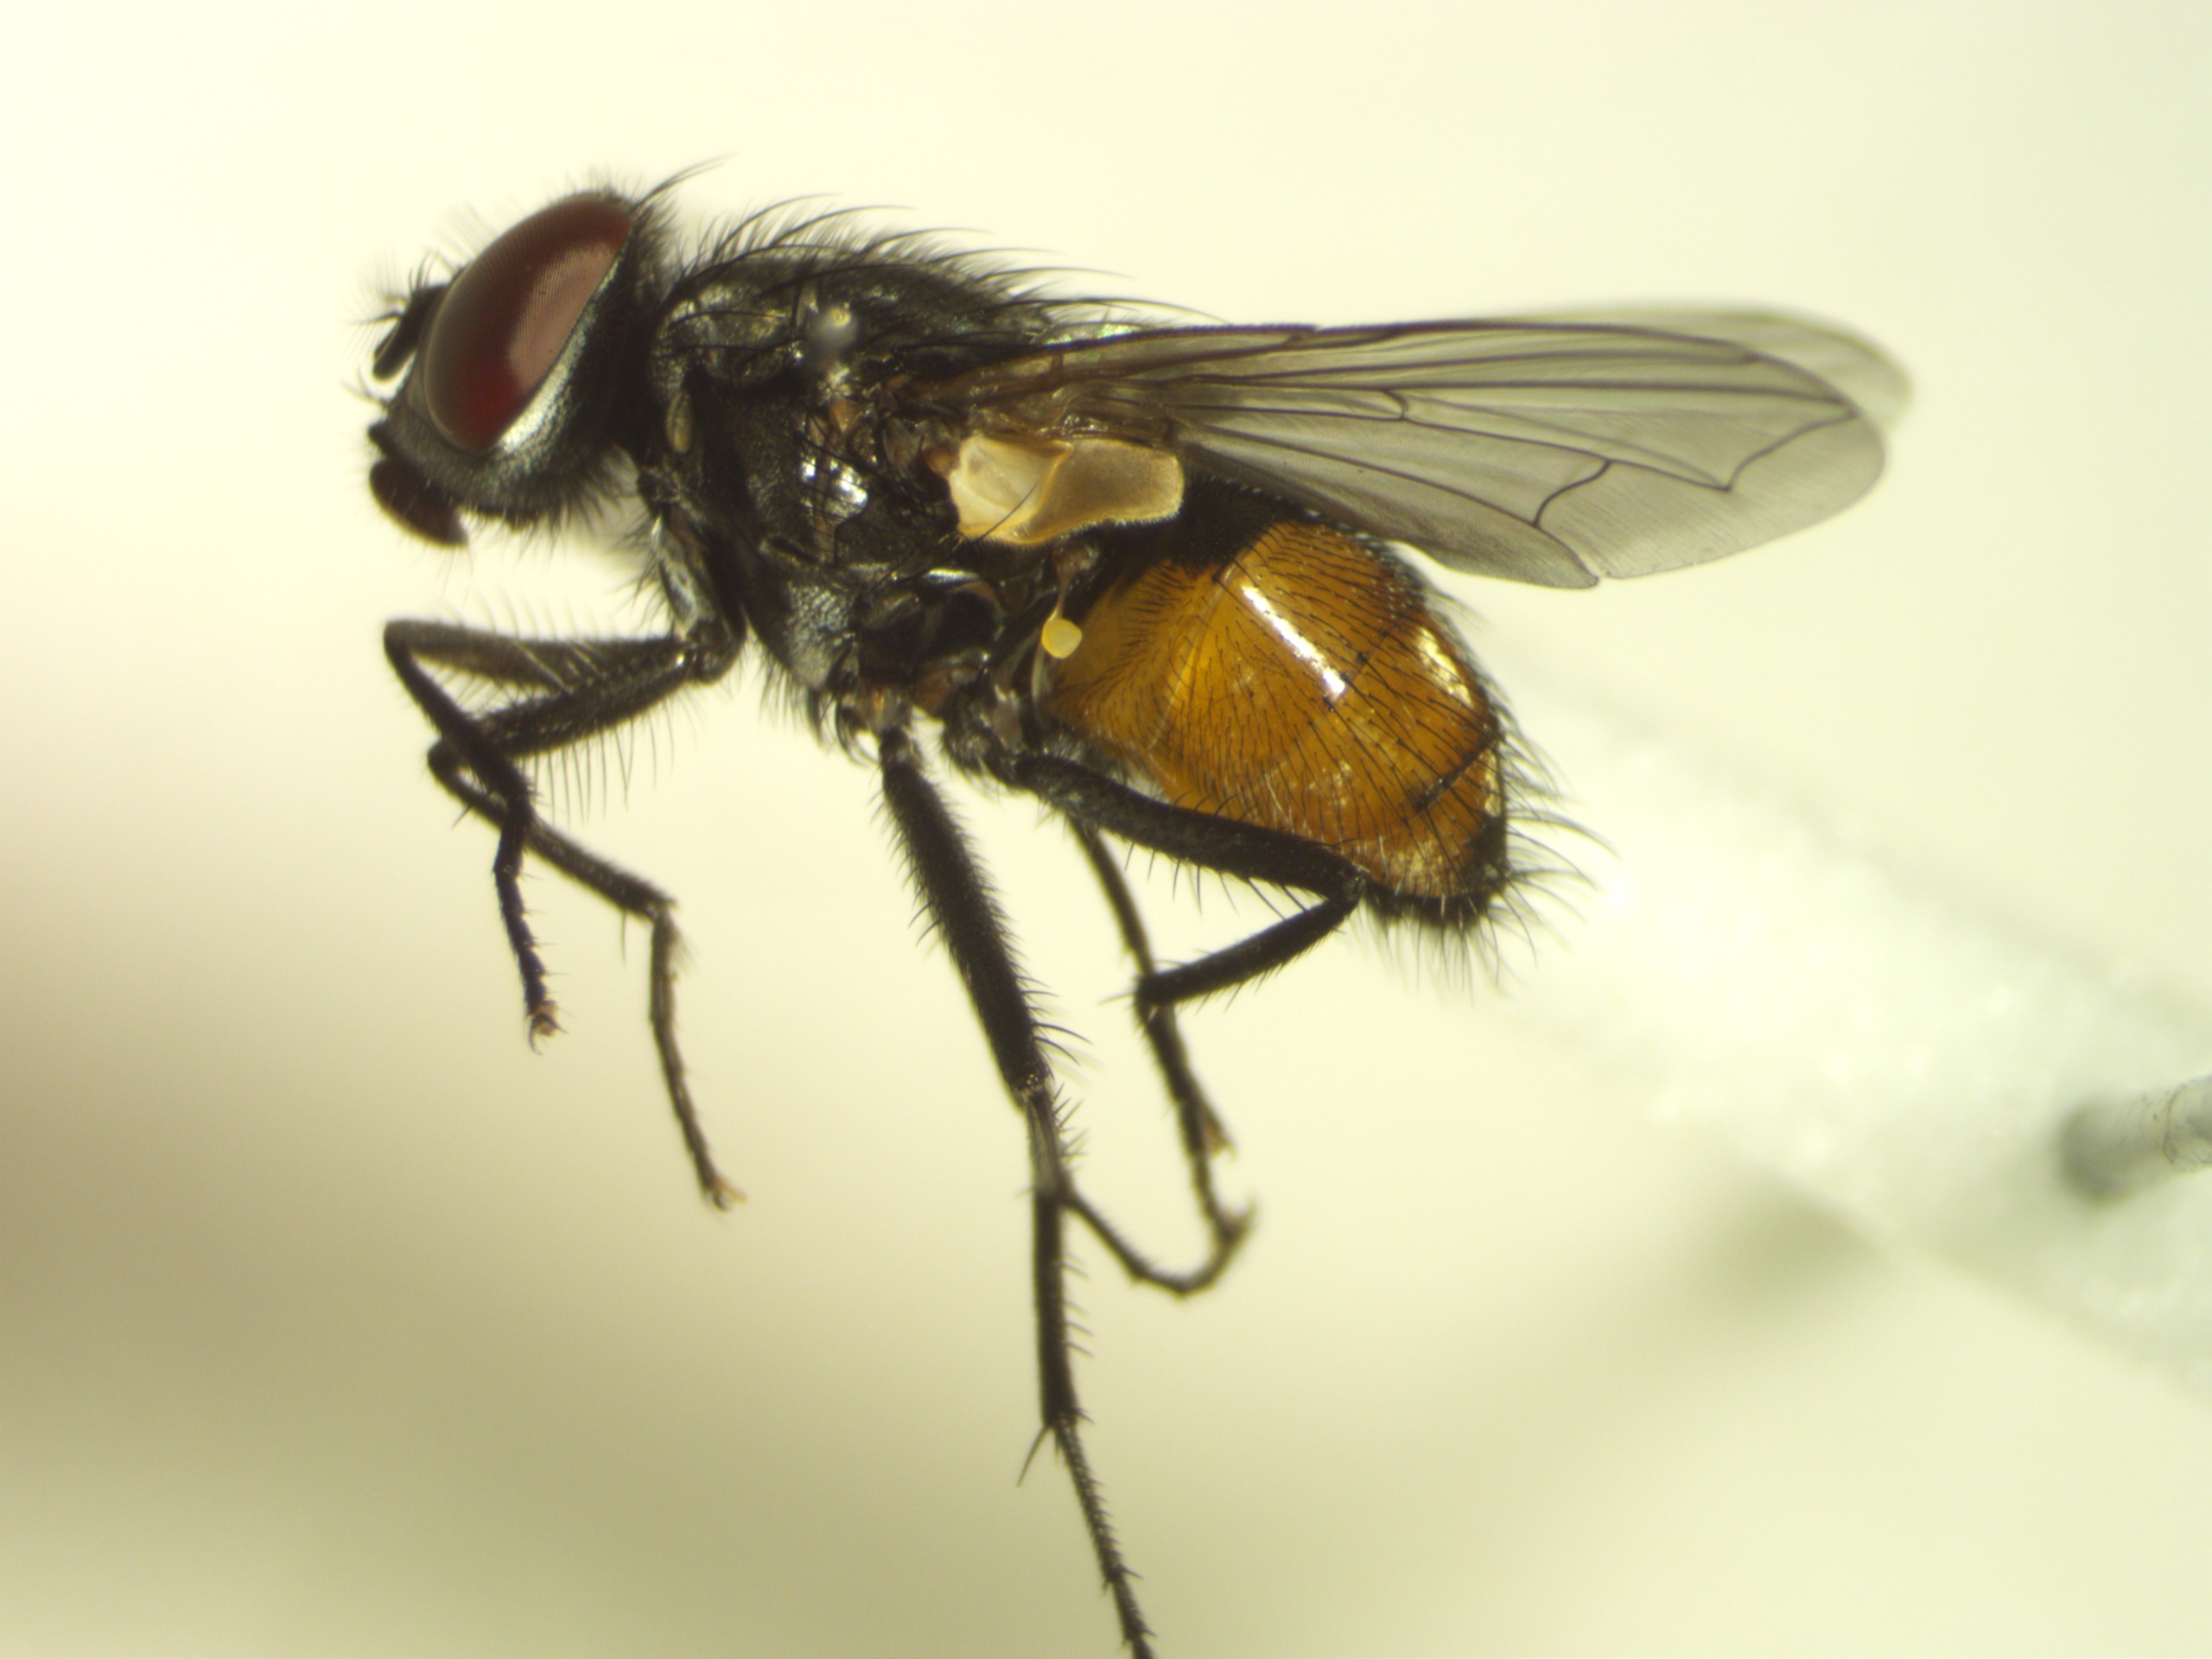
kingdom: Animalia
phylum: Arthropoda
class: Insecta
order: Diptera
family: Muscidae
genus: Musca
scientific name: Musca autumnalis
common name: Kvægflue
